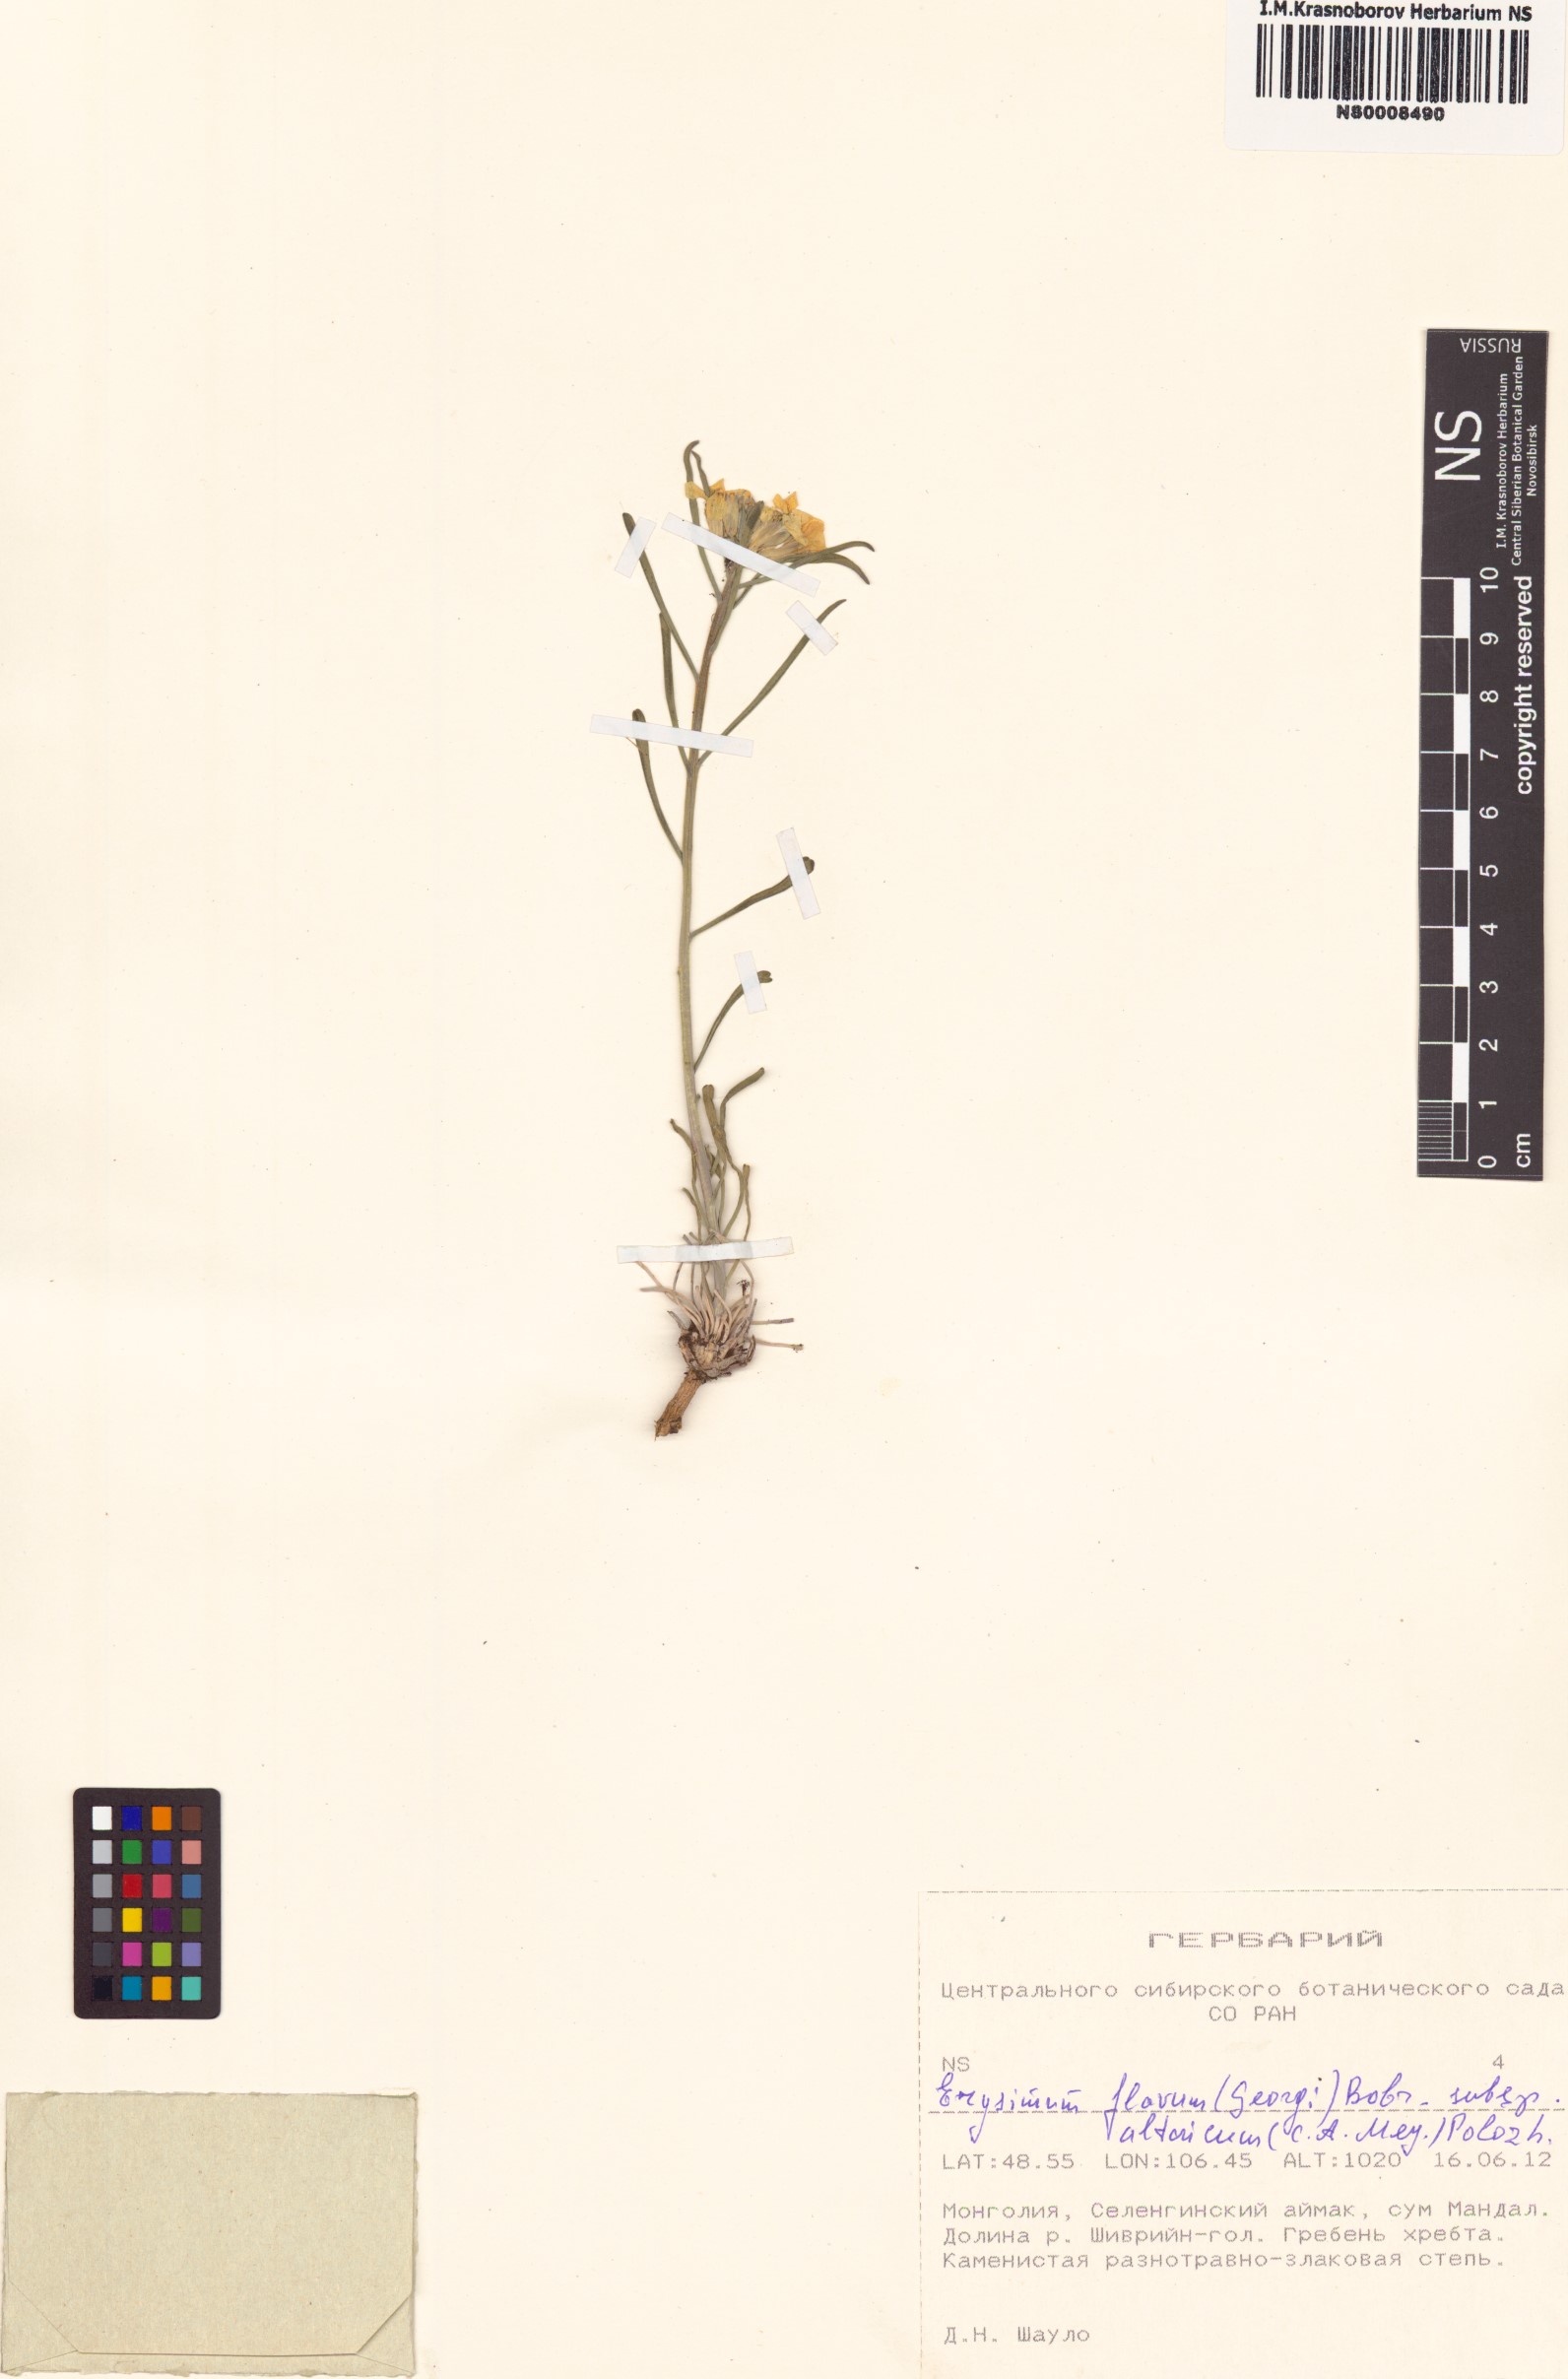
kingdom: Plantae
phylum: Tracheophyta
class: Magnoliopsida
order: Brassicales
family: Brassicaceae
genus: Erysimum
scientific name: Erysimum flavum
